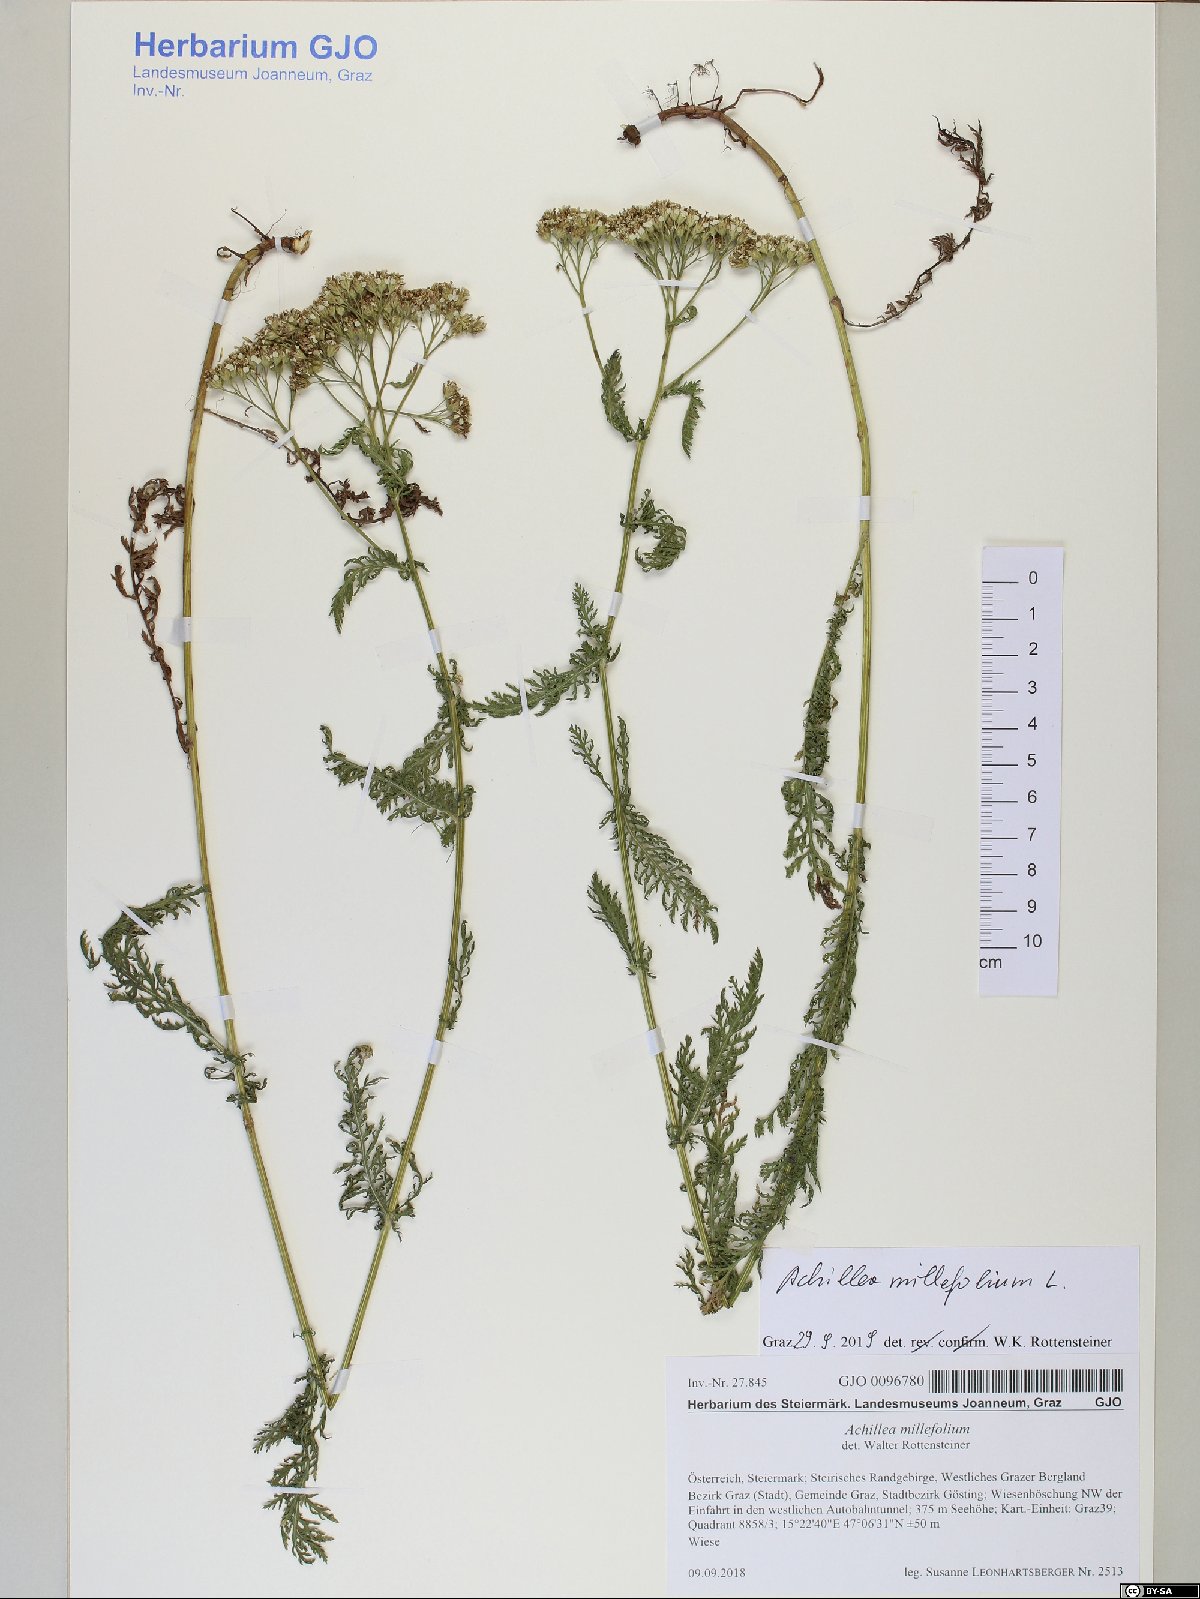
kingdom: Plantae
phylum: Tracheophyta
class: Magnoliopsida
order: Asterales
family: Asteraceae
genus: Achillea
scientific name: Achillea millefolium
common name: Yarrow
